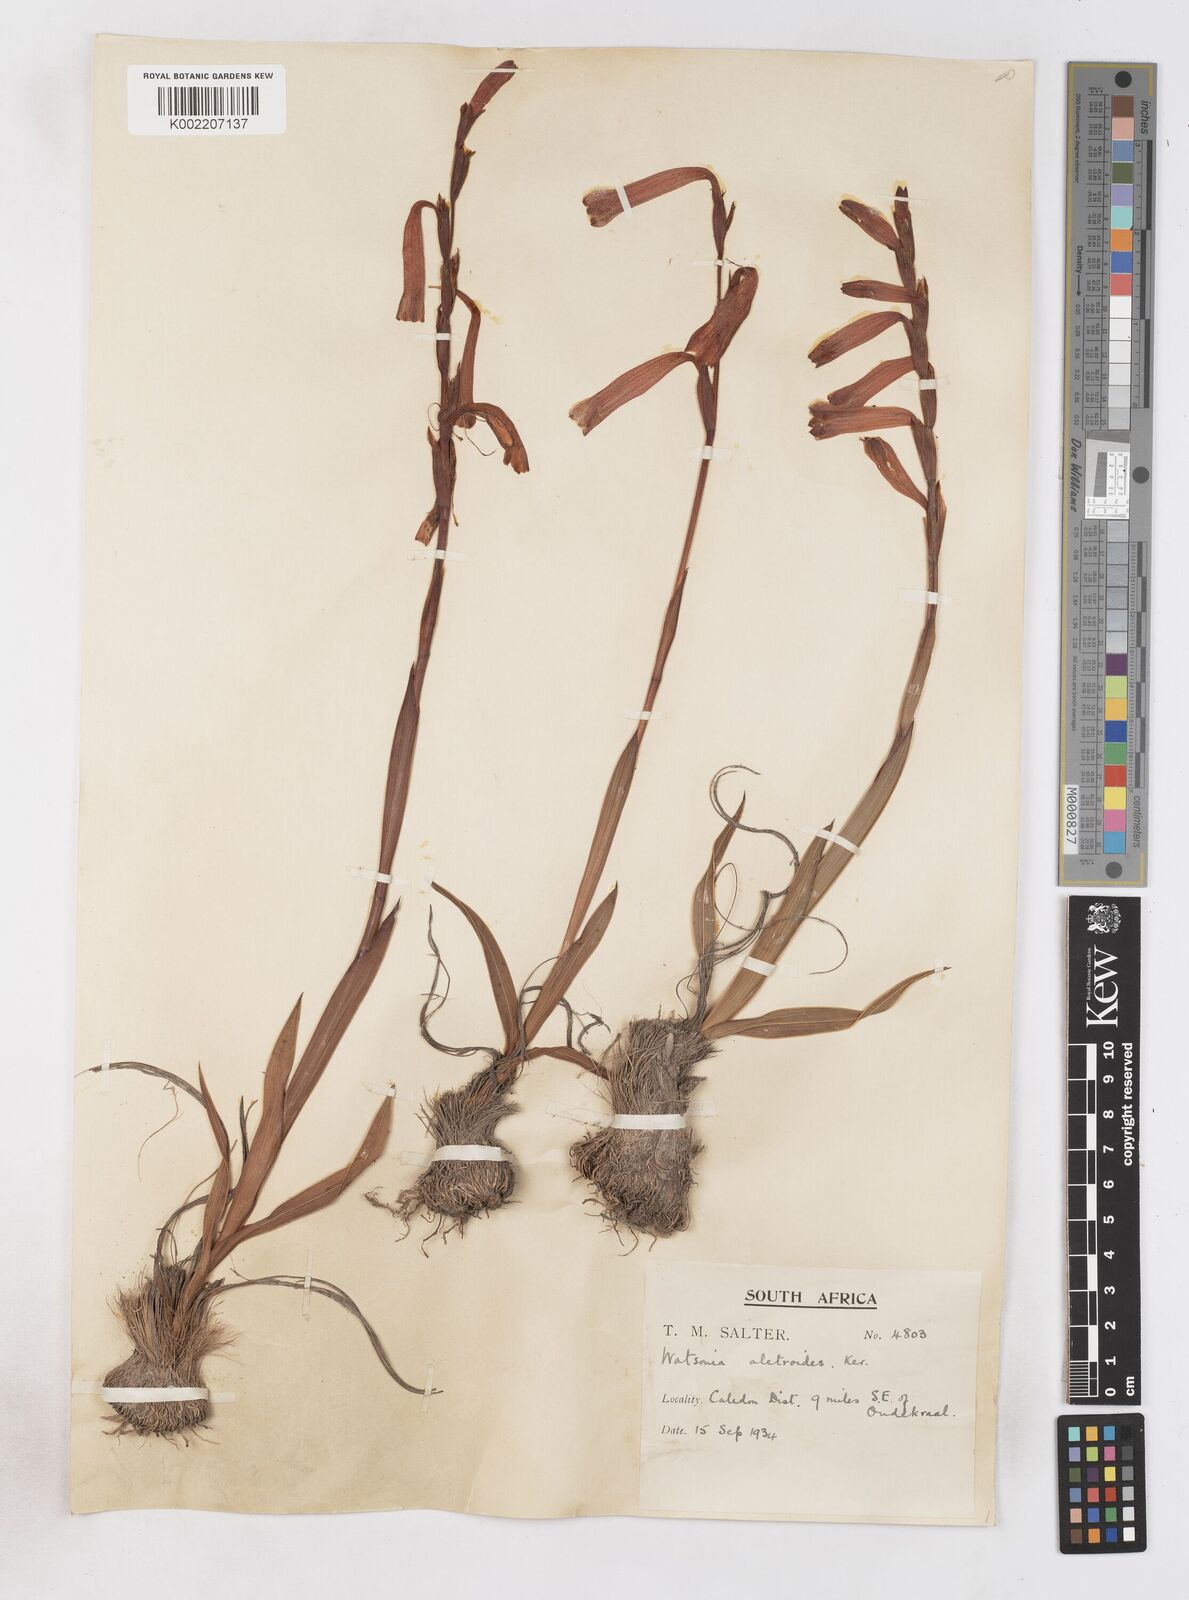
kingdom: Plantae
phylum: Tracheophyta
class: Liliopsida
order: Asparagales
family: Iridaceae
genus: Watsonia
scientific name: Watsonia aletroides
